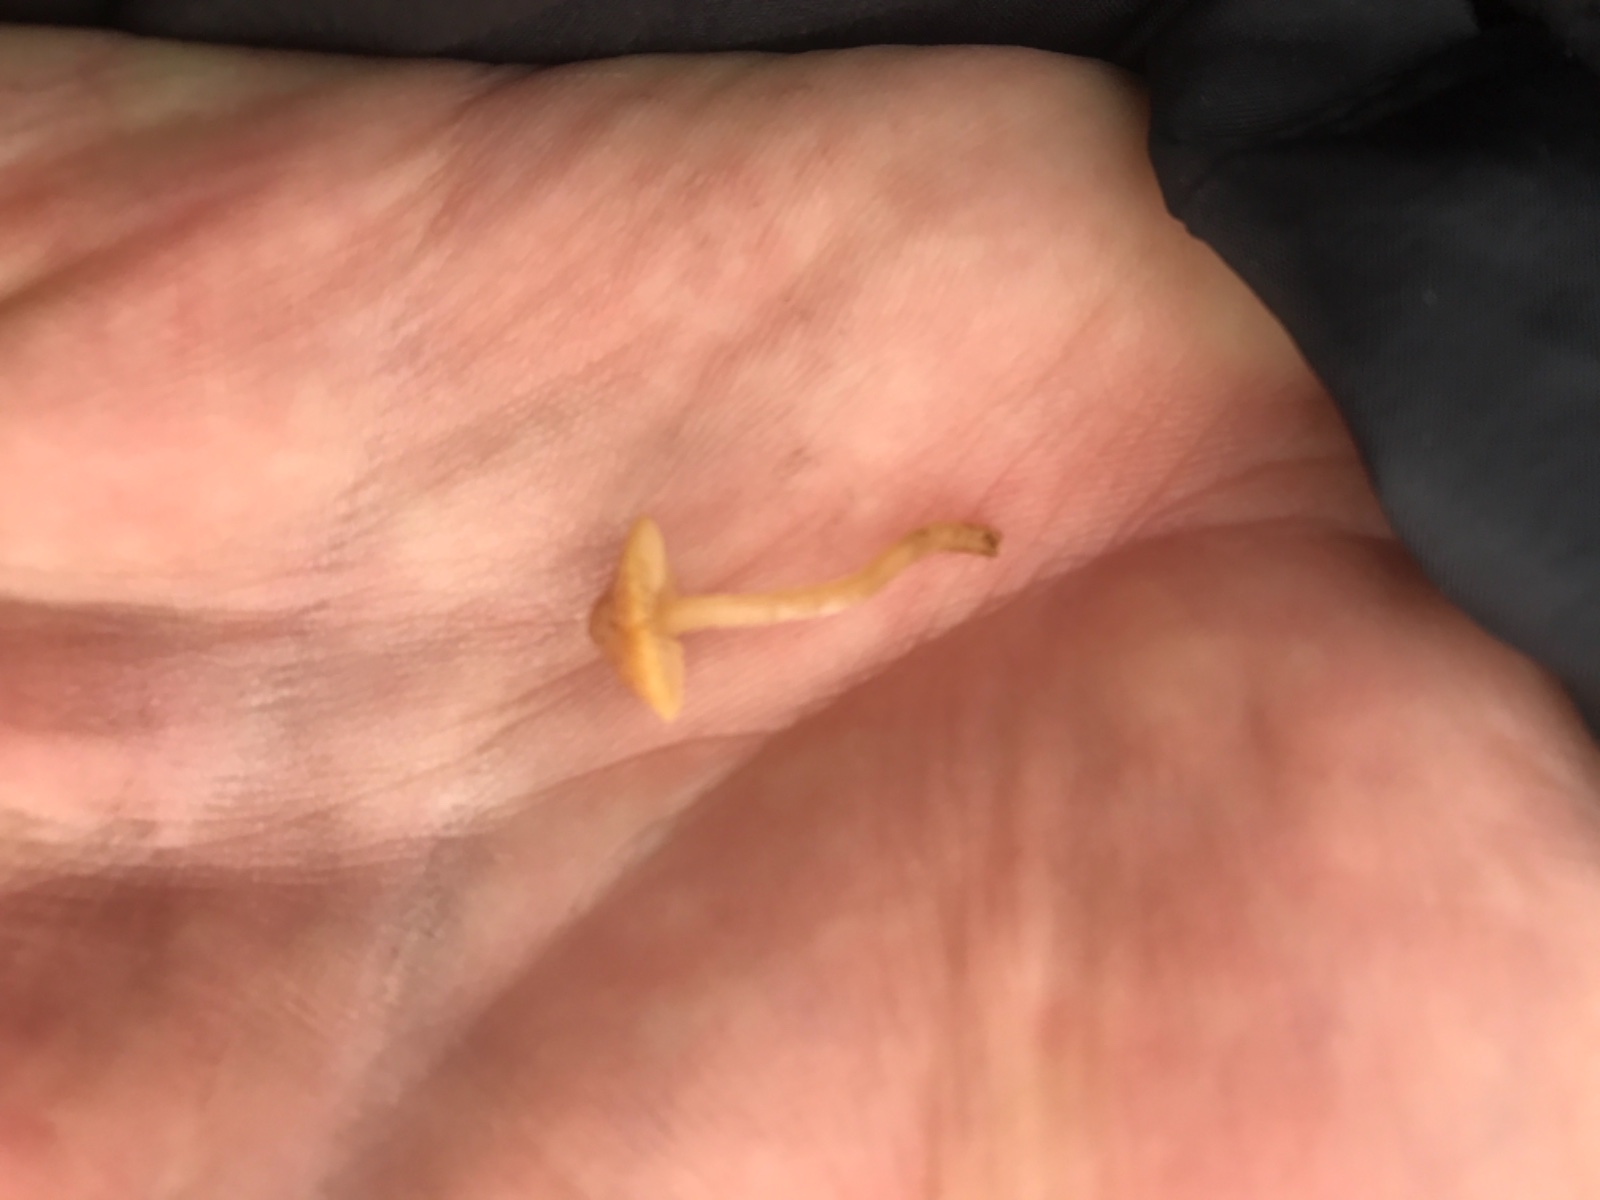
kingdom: Fungi
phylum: Basidiomycota
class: Agaricomycetes
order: Agaricales
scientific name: Agaricales
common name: champignonordenen
